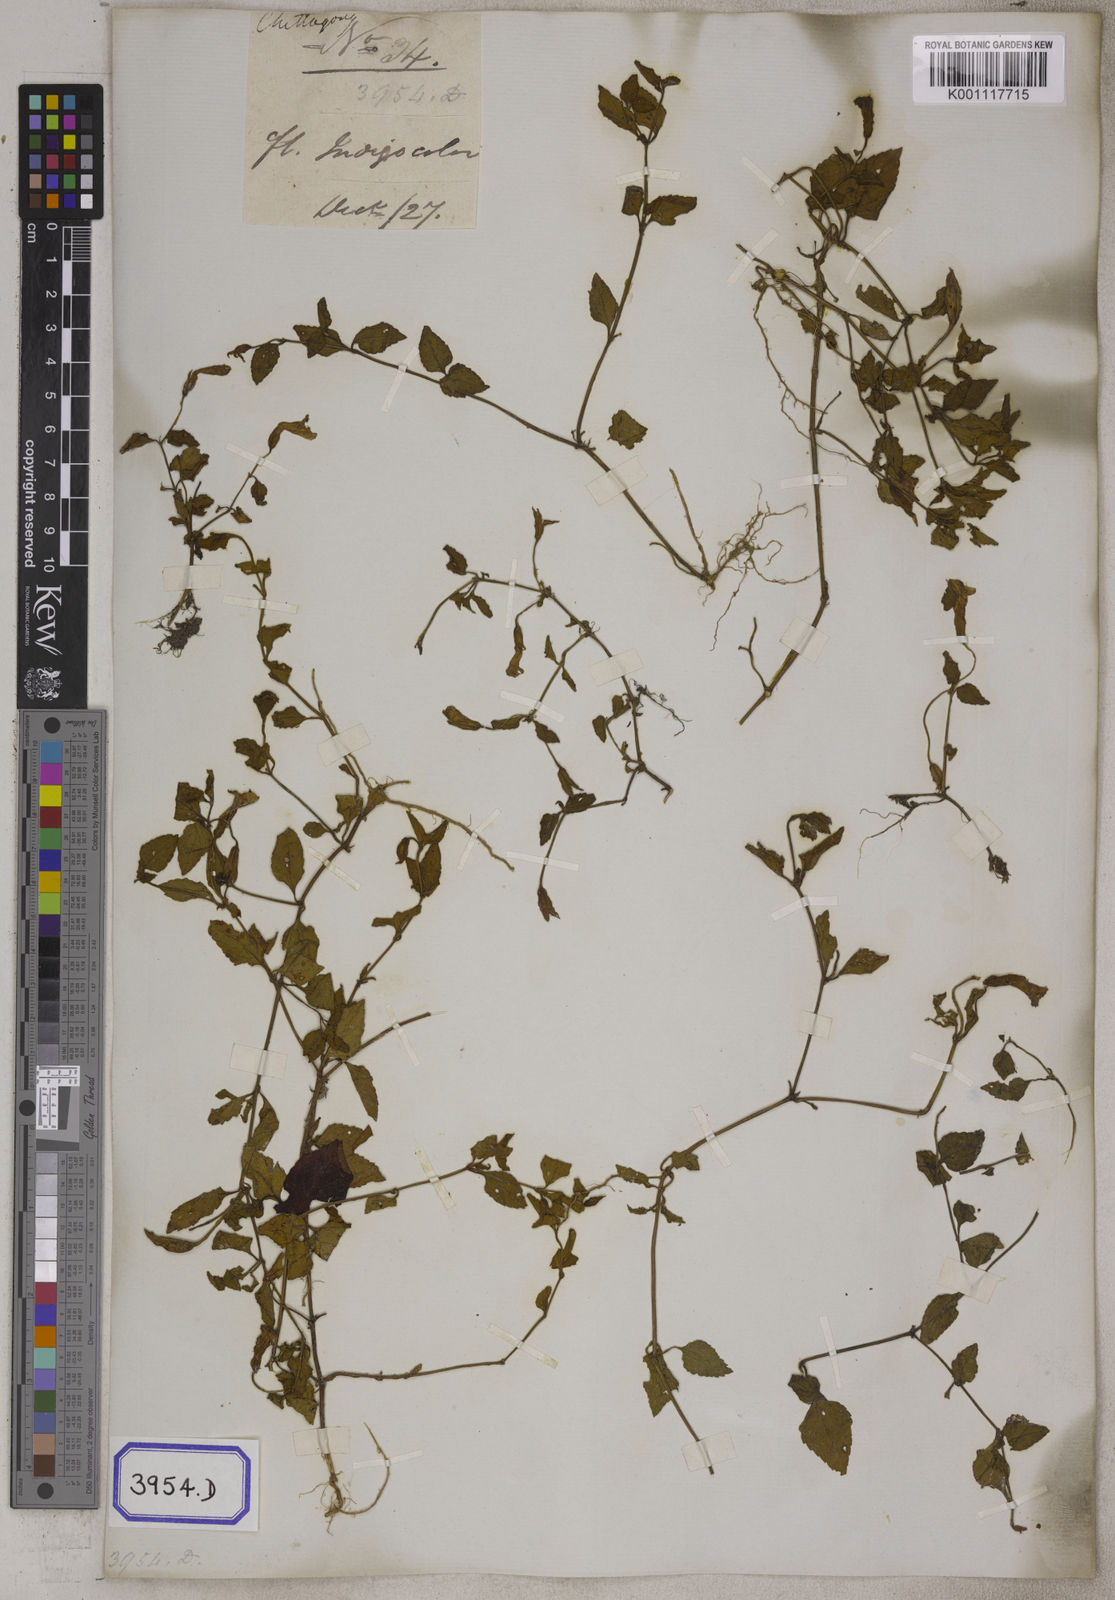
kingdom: Plantae
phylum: Tracheophyta
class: Magnoliopsida
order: Lamiales
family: Linderniaceae
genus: Torenia
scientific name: Torenia cordifolia
